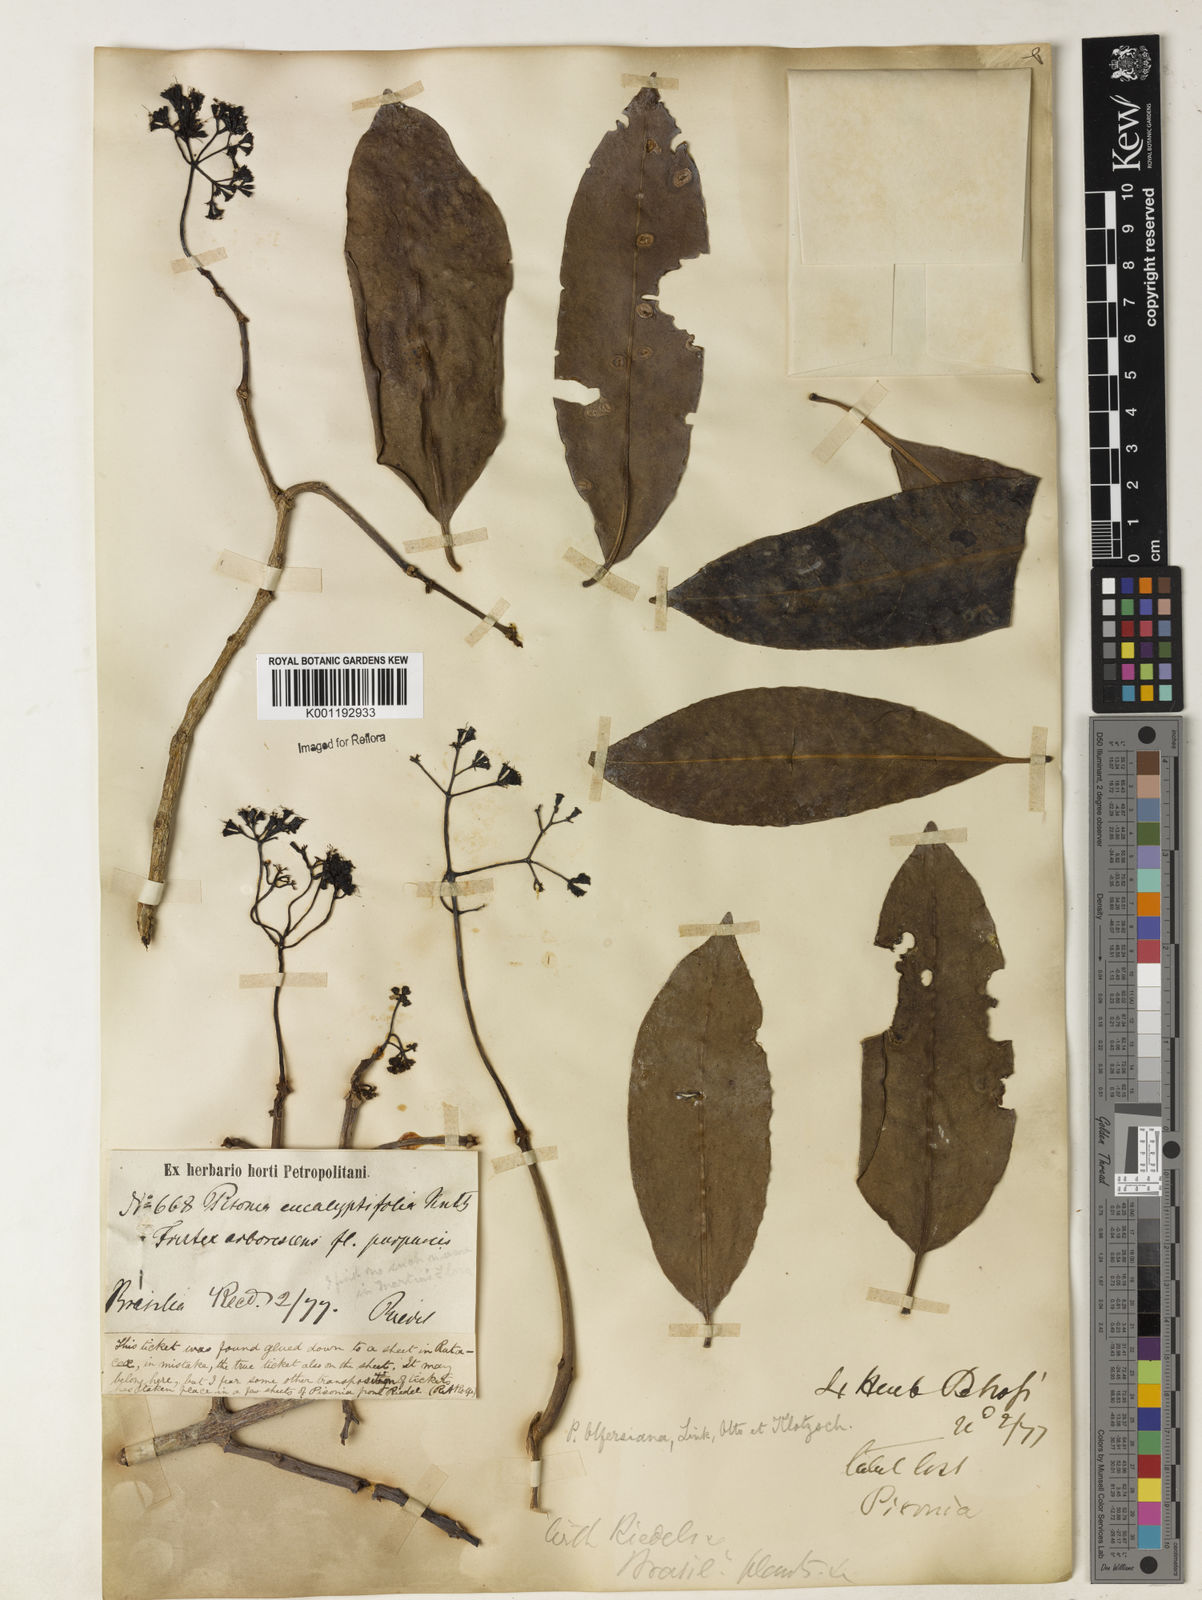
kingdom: Plantae
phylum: Tracheophyta
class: Magnoliopsida
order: Caryophyllales
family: Nyctaginaceae
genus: Guapira
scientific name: Guapira
